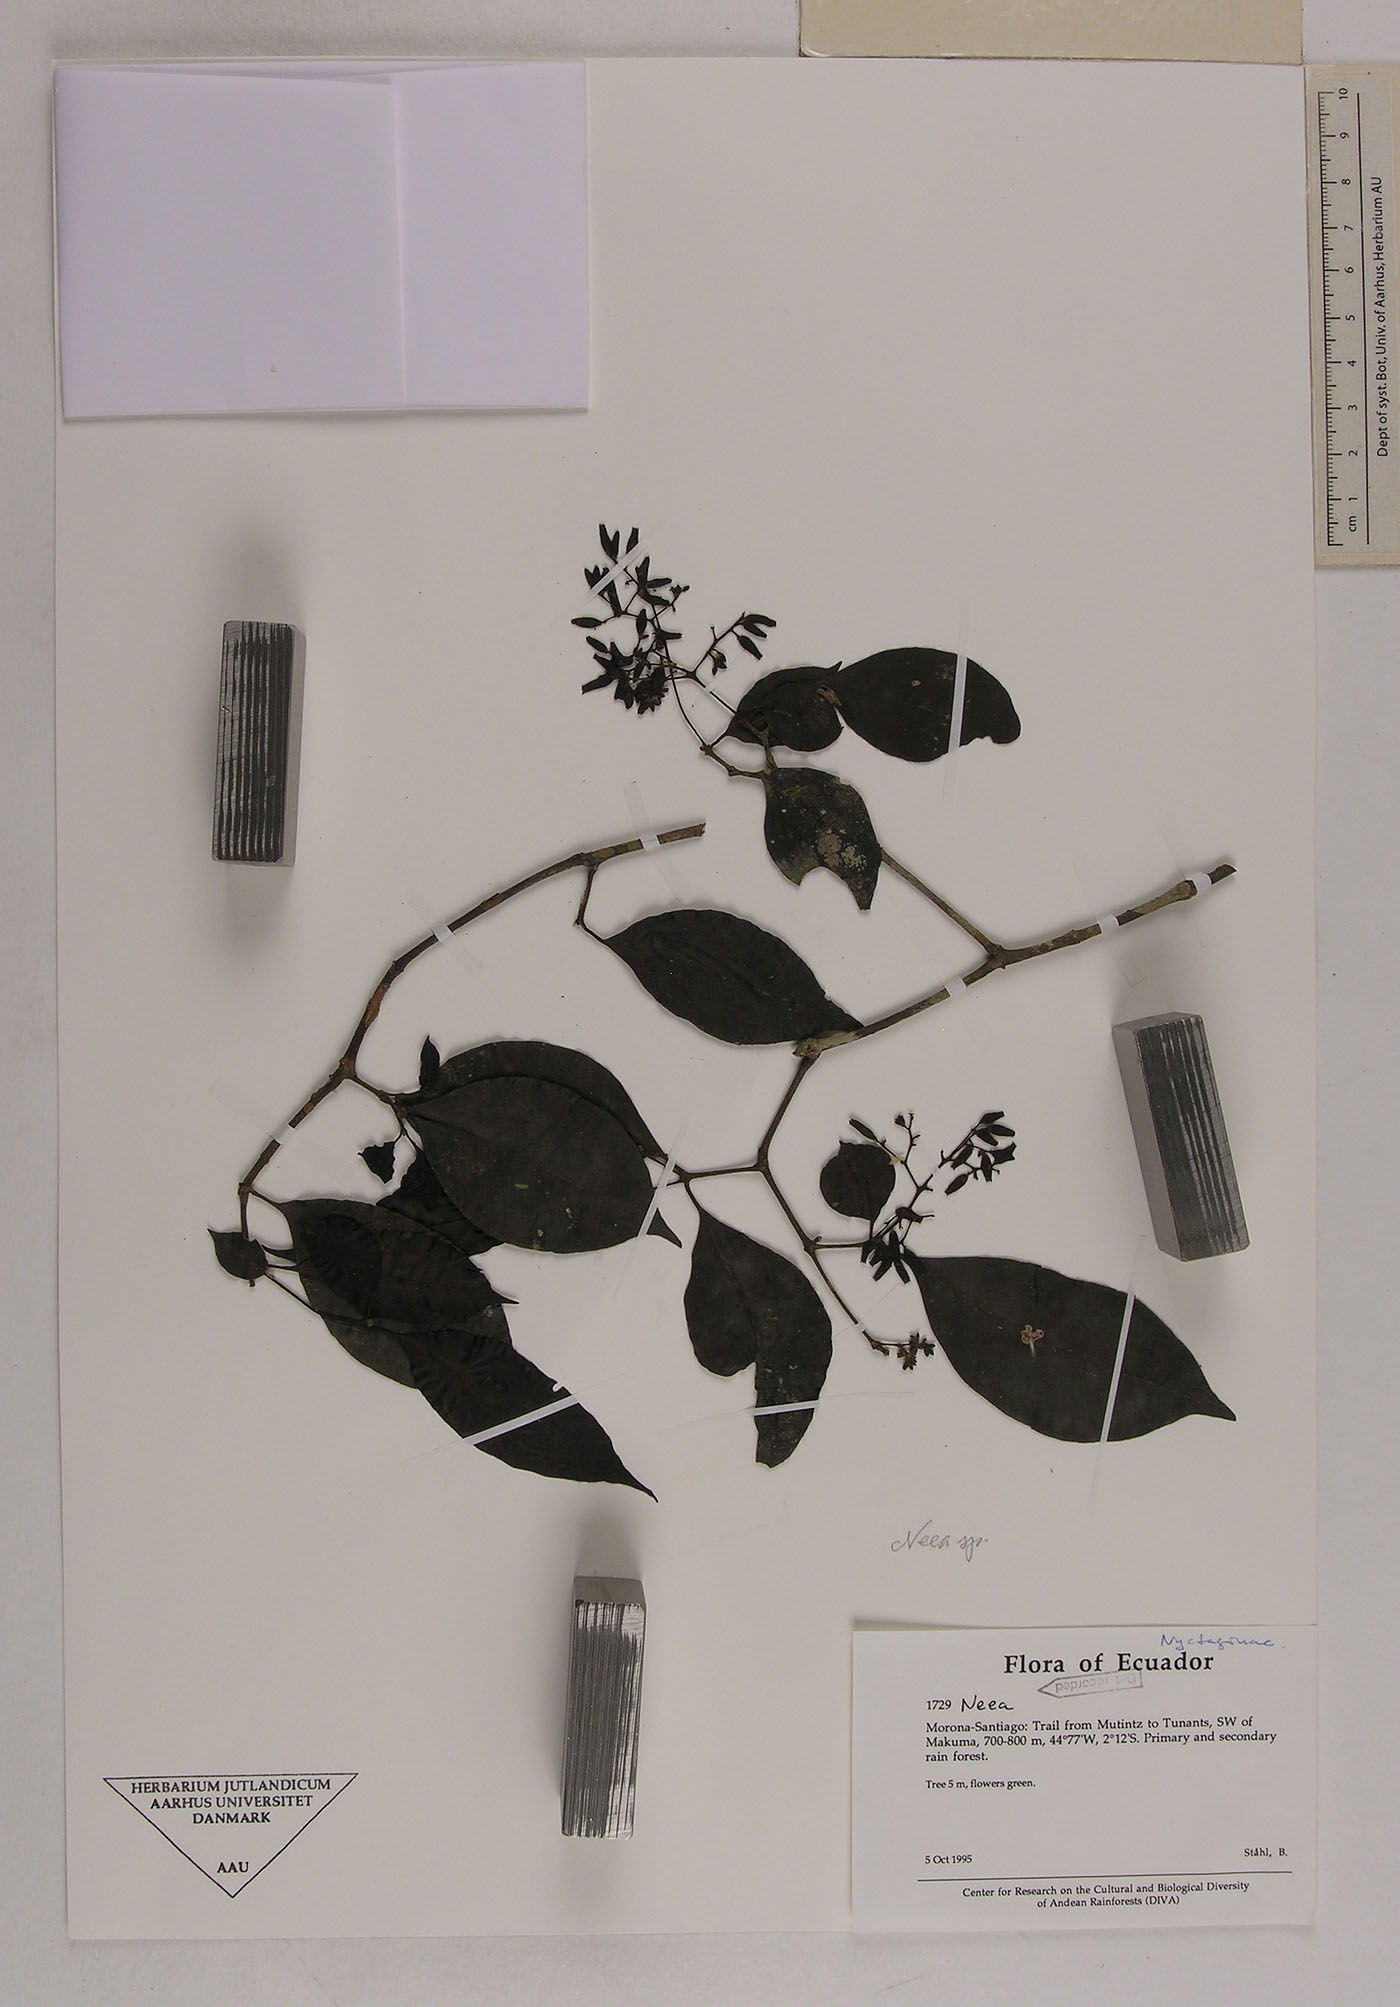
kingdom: Plantae
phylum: Tracheophyta
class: Magnoliopsida
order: Caryophyllales
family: Nyctaginaceae
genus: Neea
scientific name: Neea
